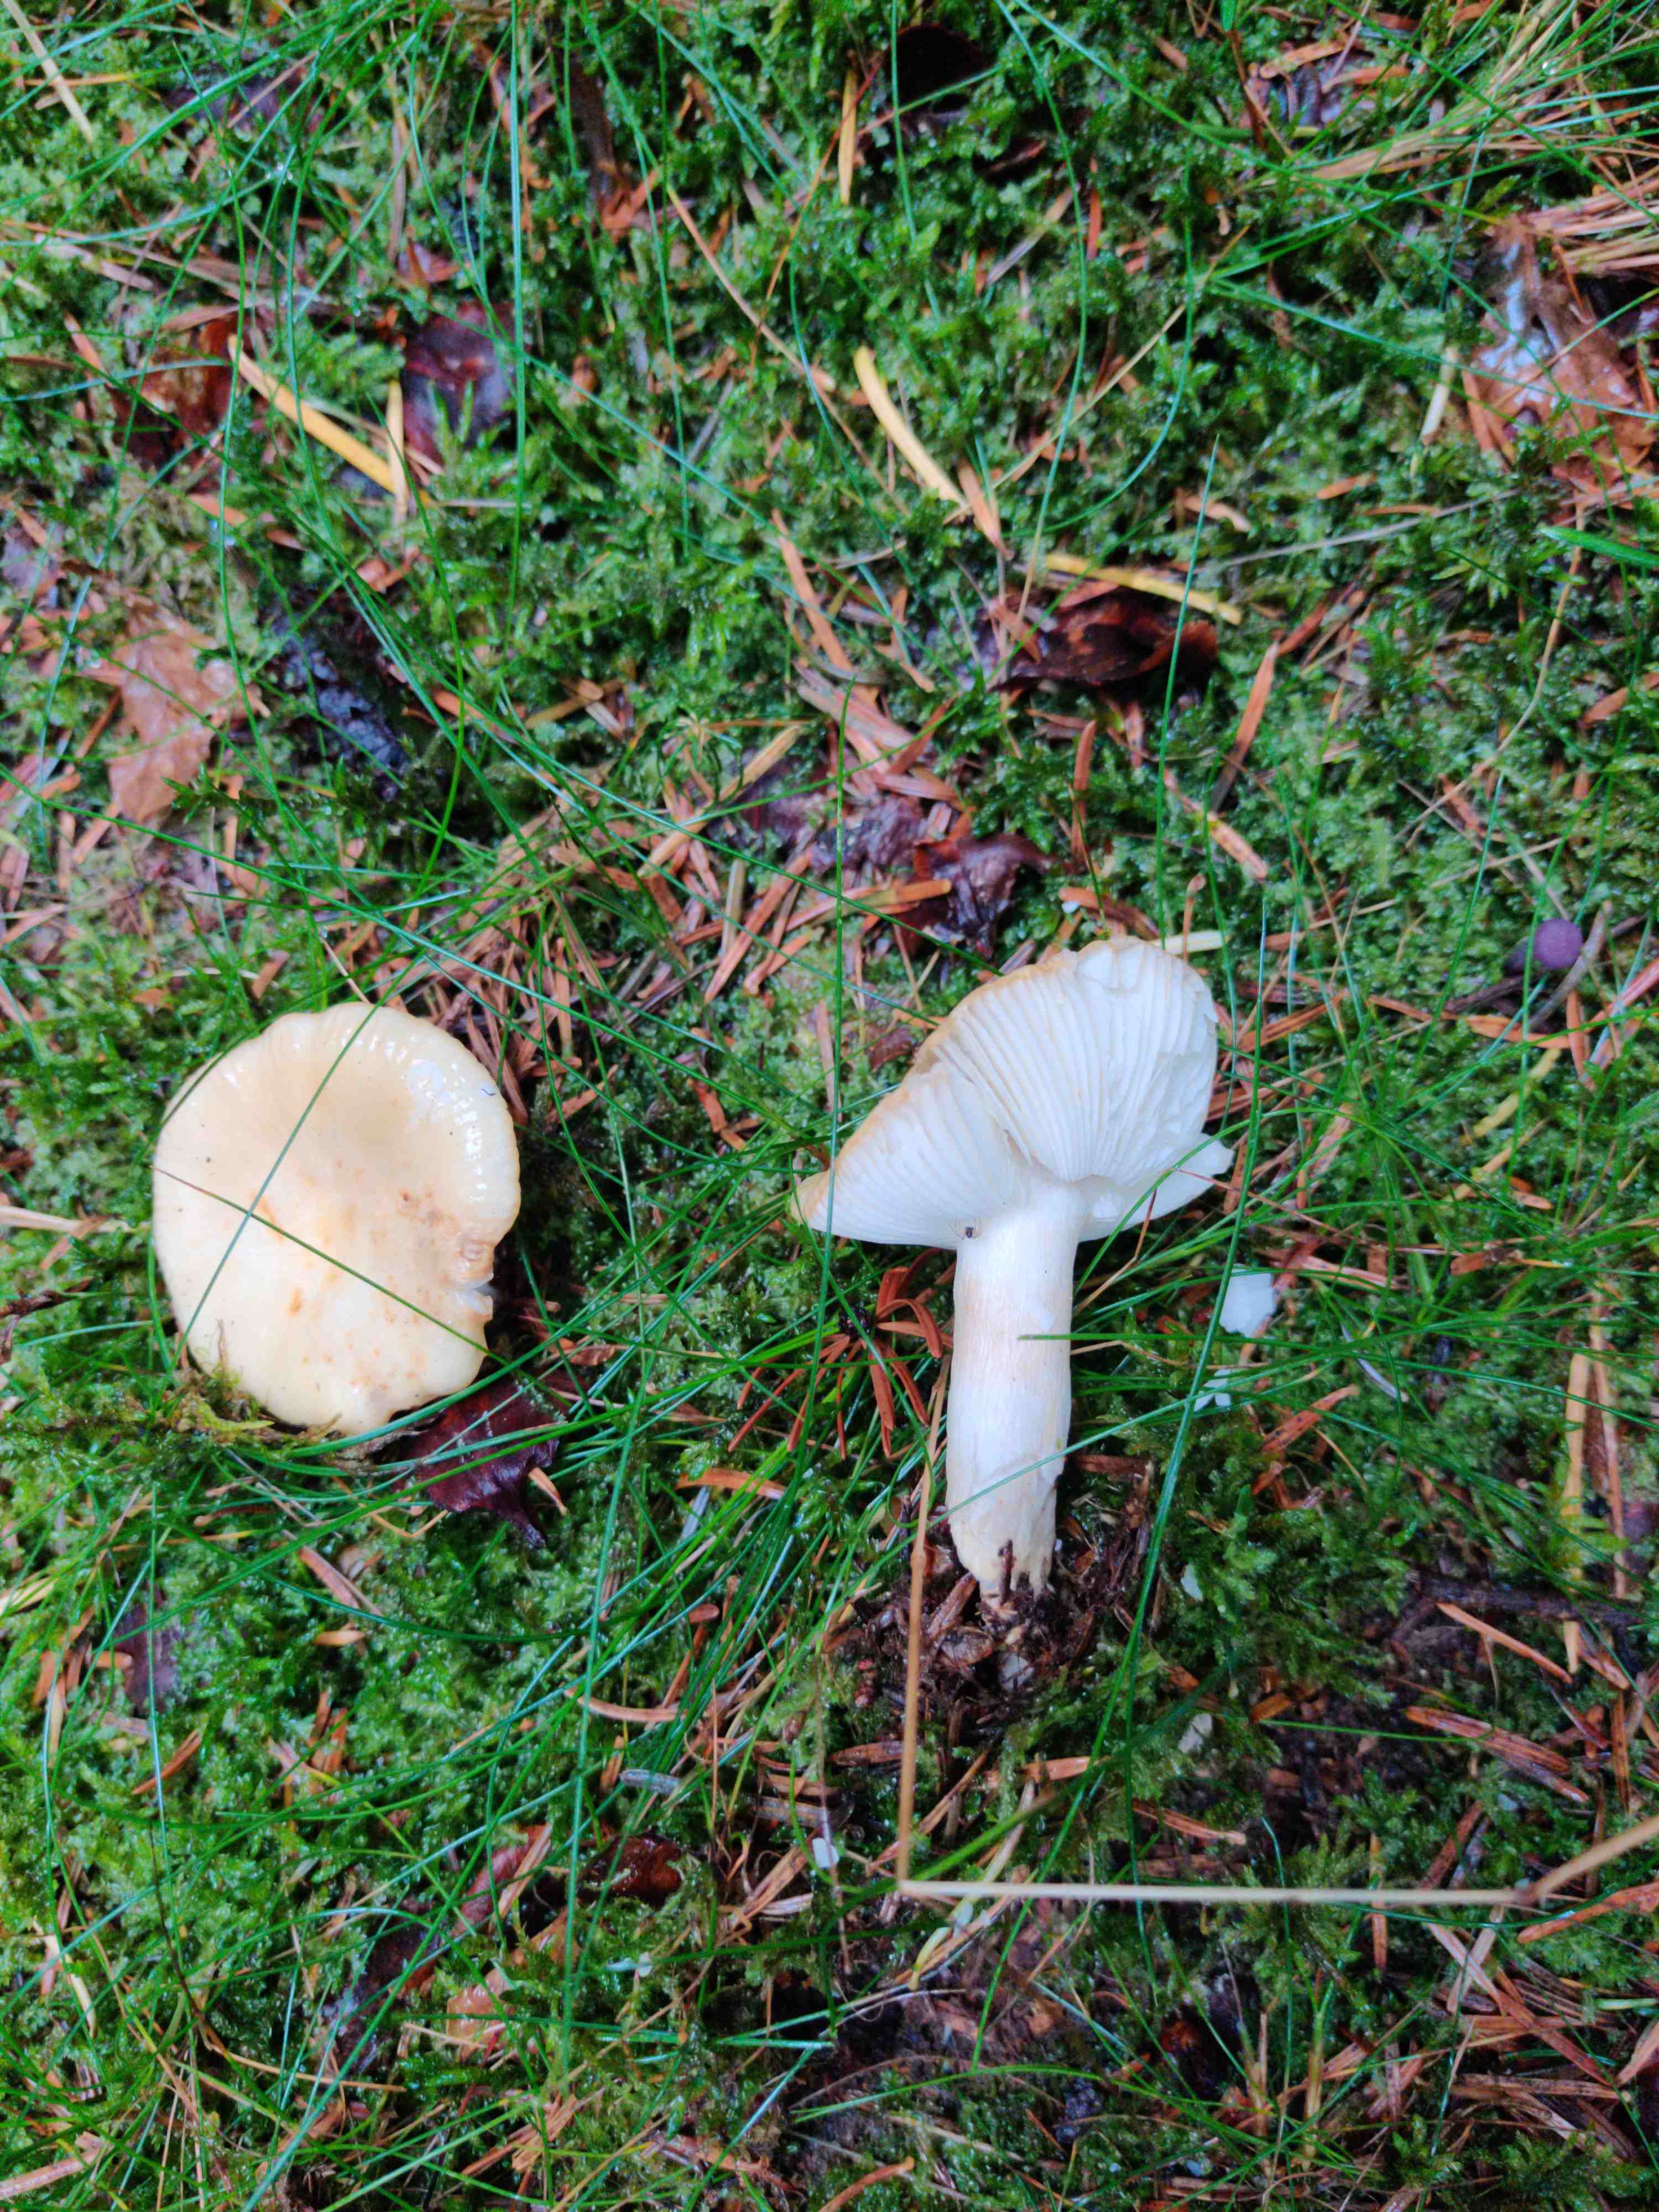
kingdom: Fungi
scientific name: Fungi
